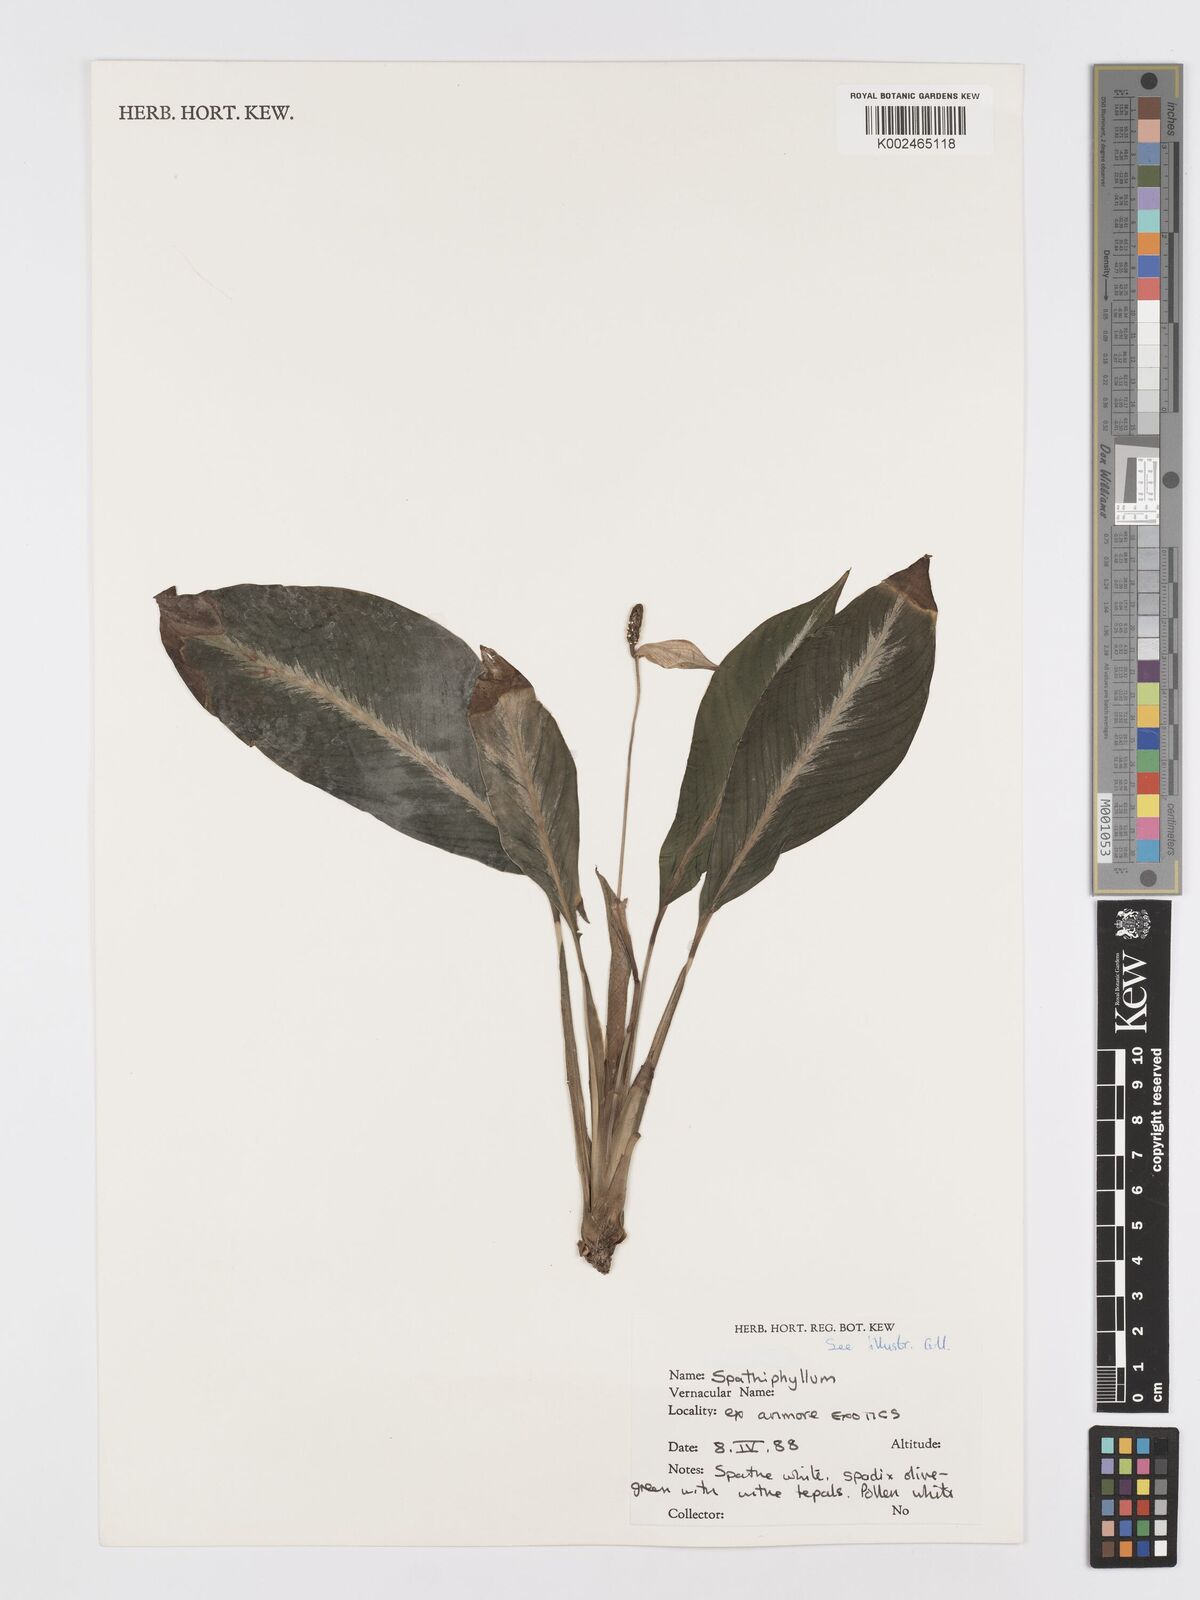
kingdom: Plantae
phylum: Tracheophyta
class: Liliopsida
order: Alismatales
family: Araceae
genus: Spathiphyllum
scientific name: Spathiphyllum
